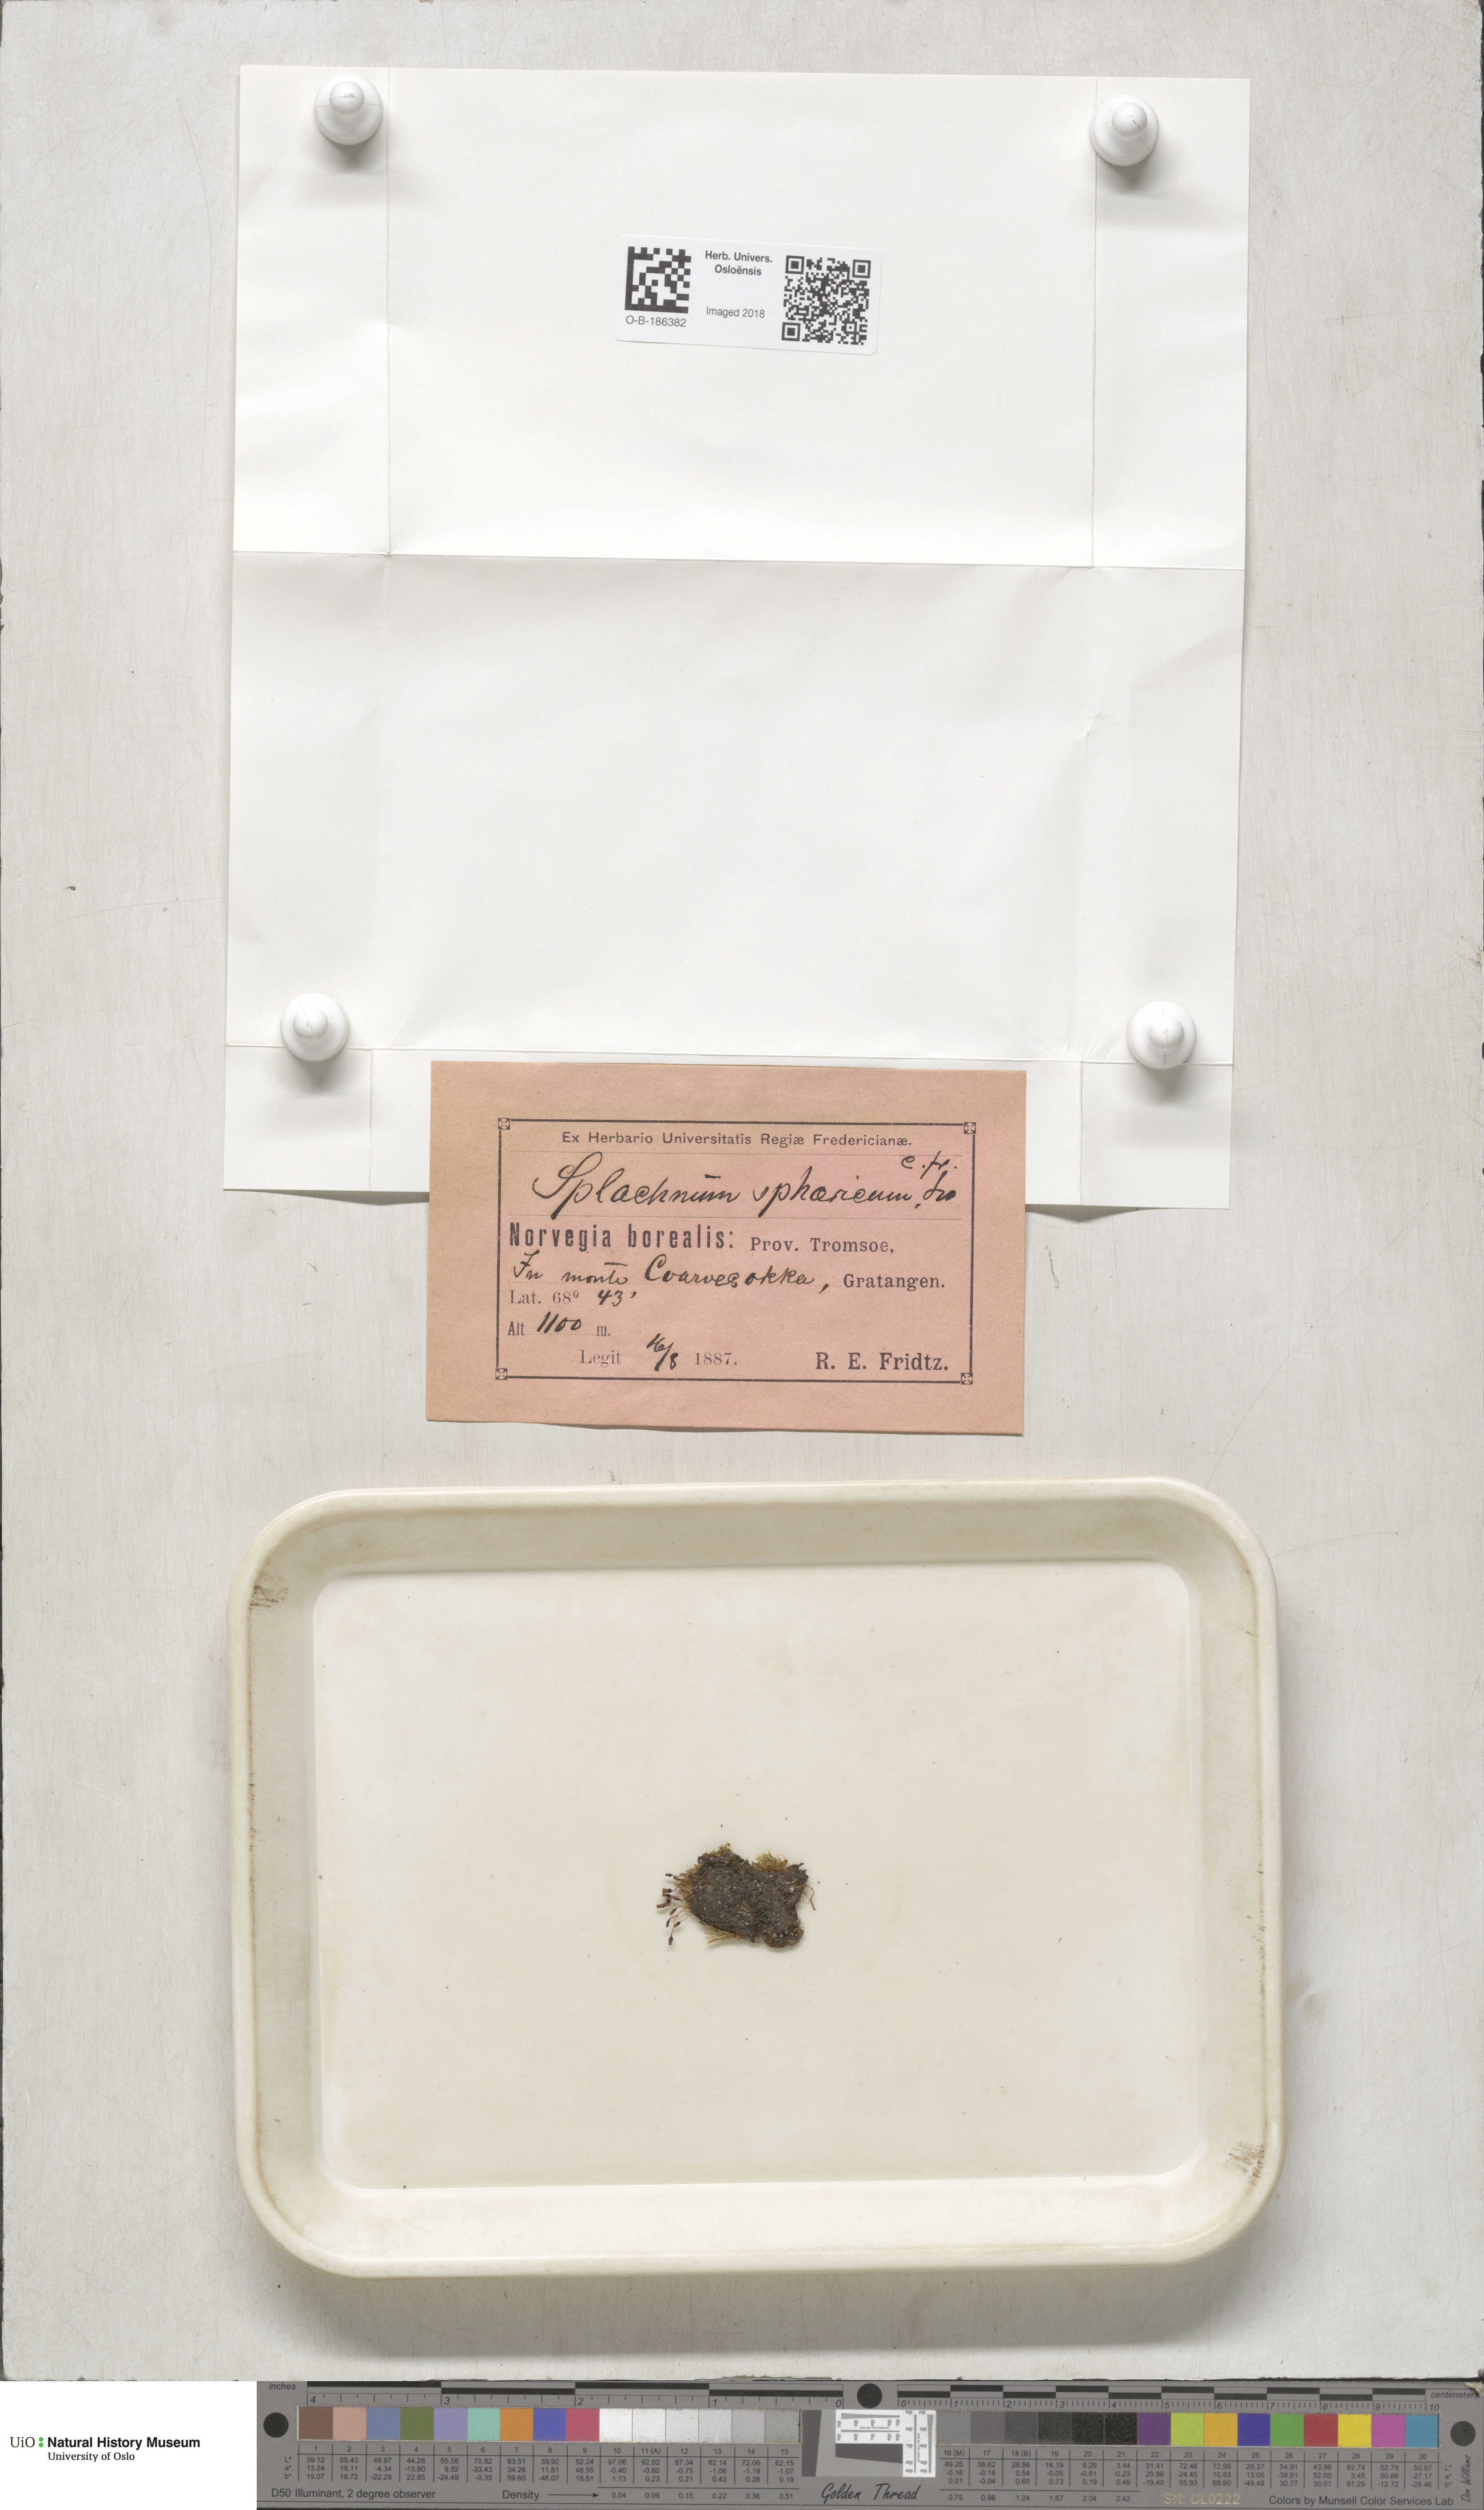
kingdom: Plantae
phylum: Bryophyta
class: Bryopsida
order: Splachnales
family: Splachnaceae
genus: Splachnum
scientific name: Splachnum sphaericum
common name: Round-fruited dung moss
